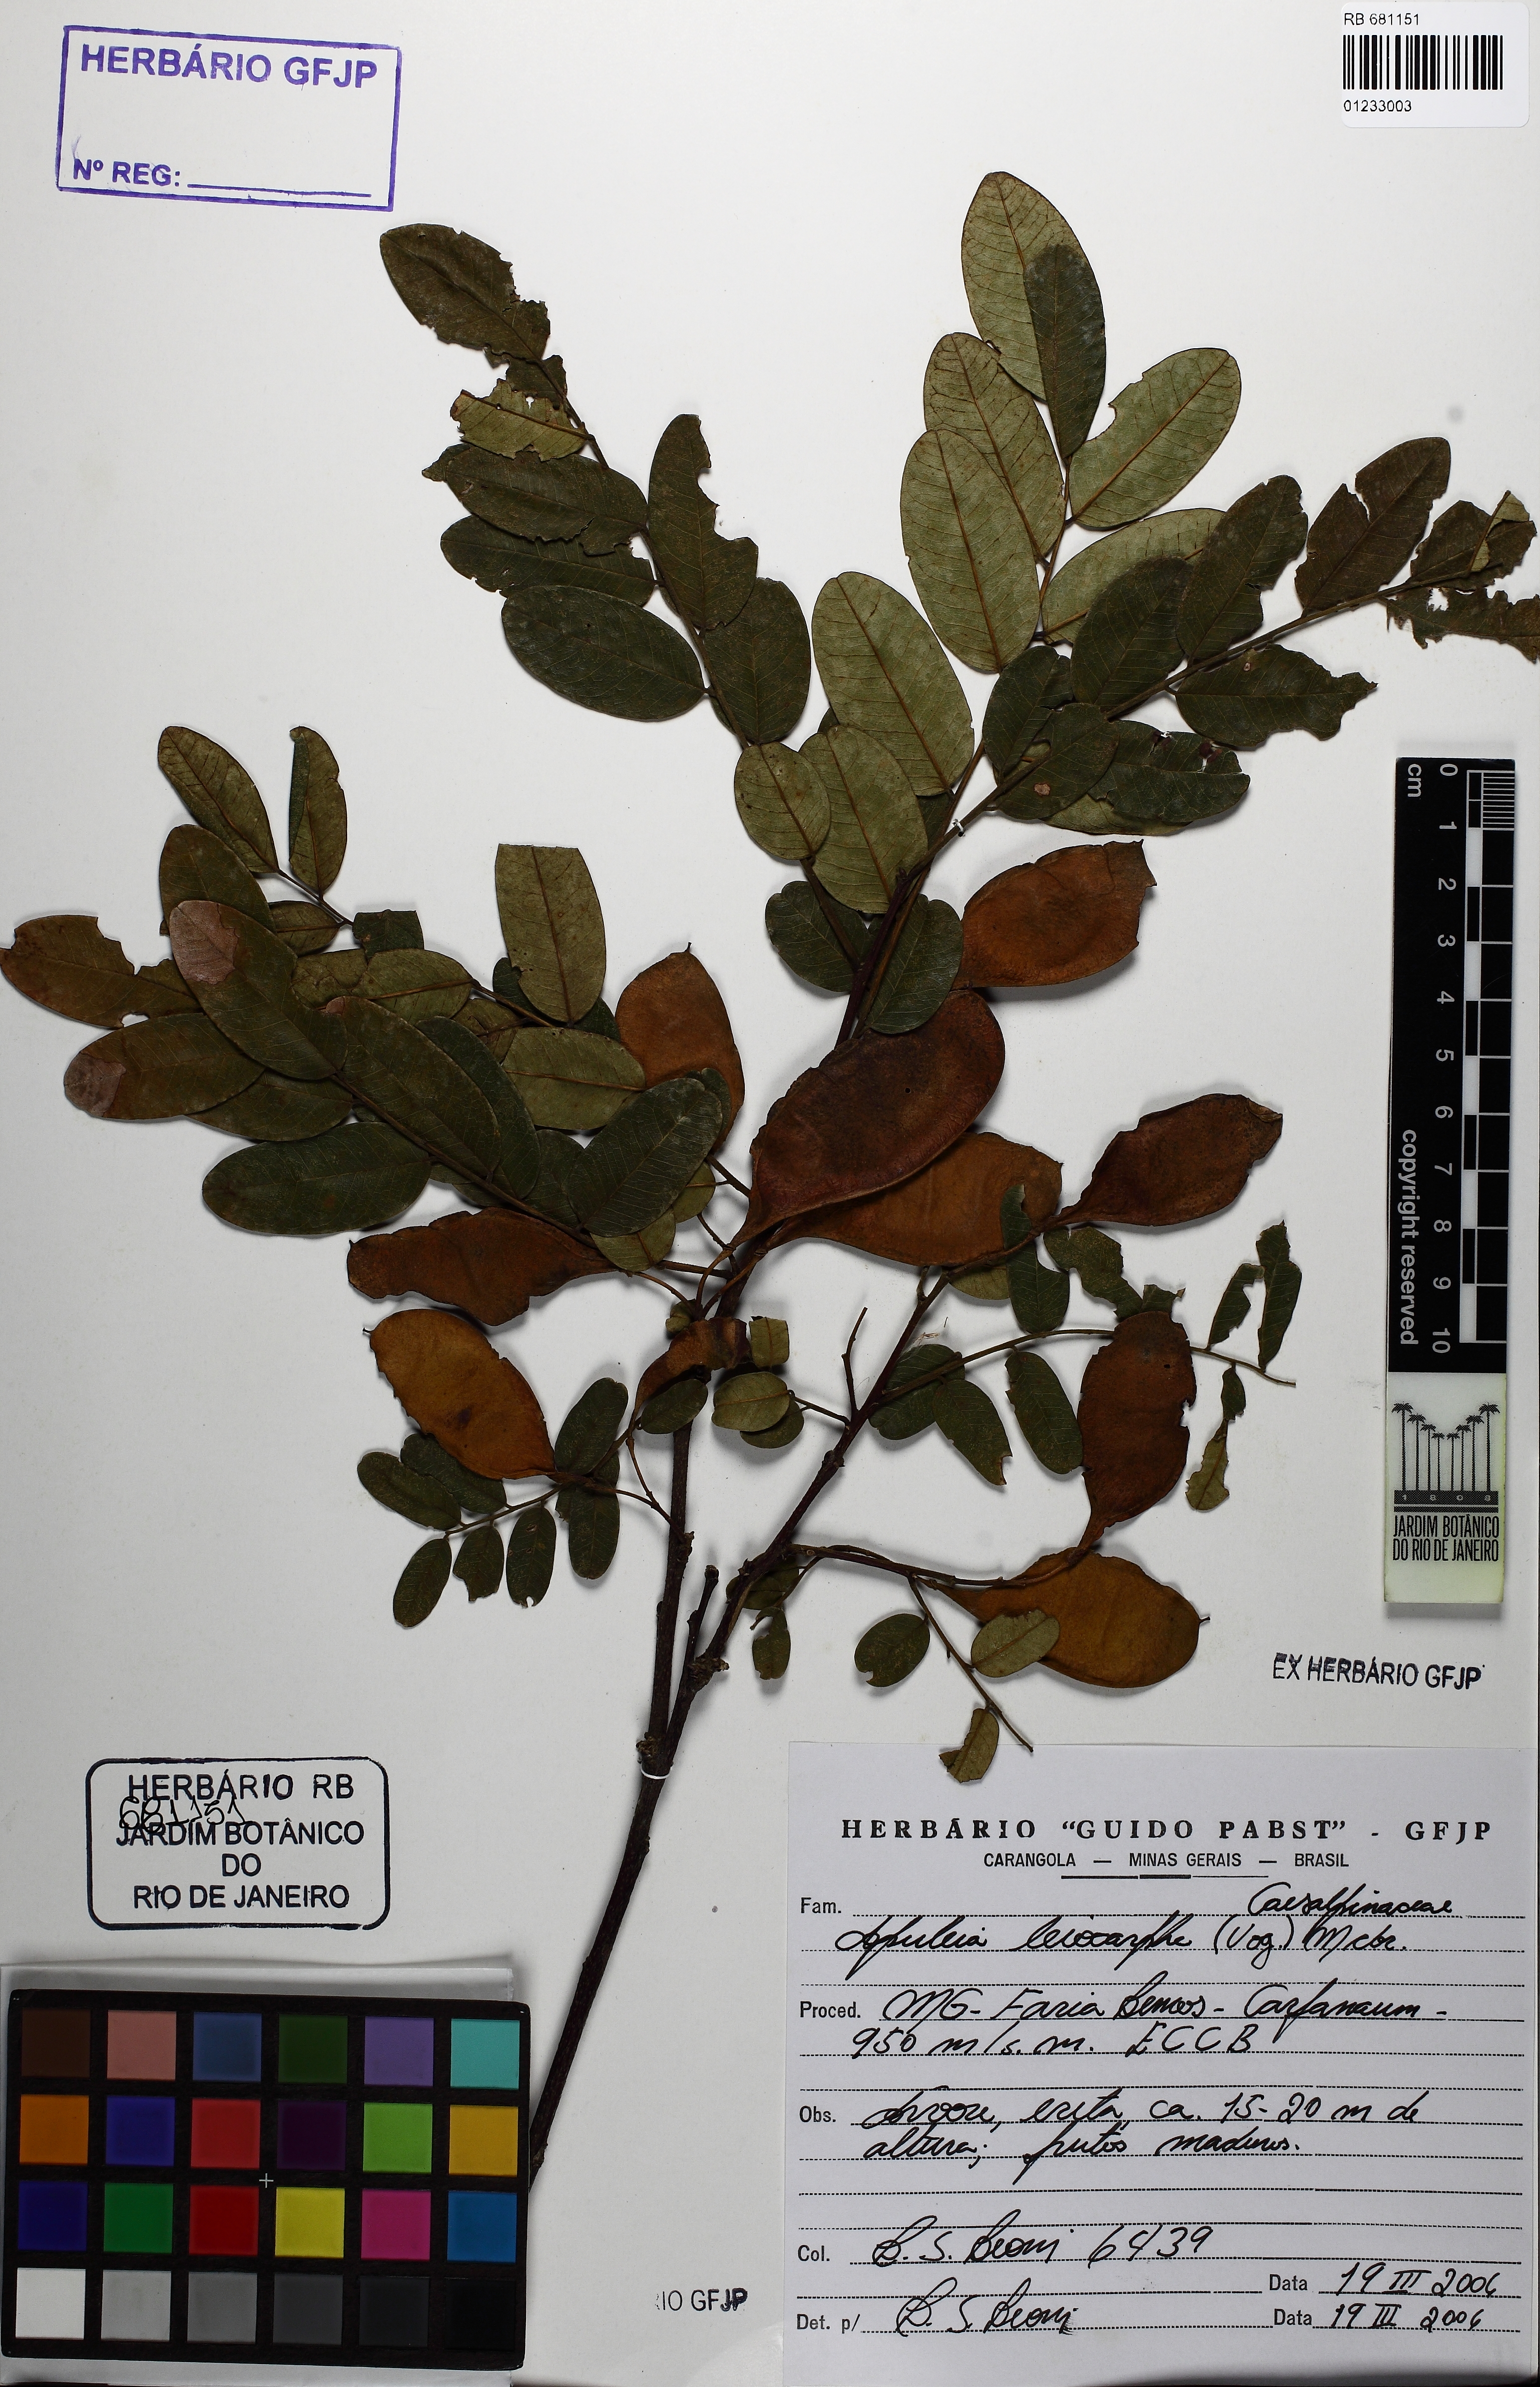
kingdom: Plantae
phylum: Tracheophyta
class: Magnoliopsida
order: Fabales
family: Fabaceae
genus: Apuleia
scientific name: Apuleia leiocarpa
